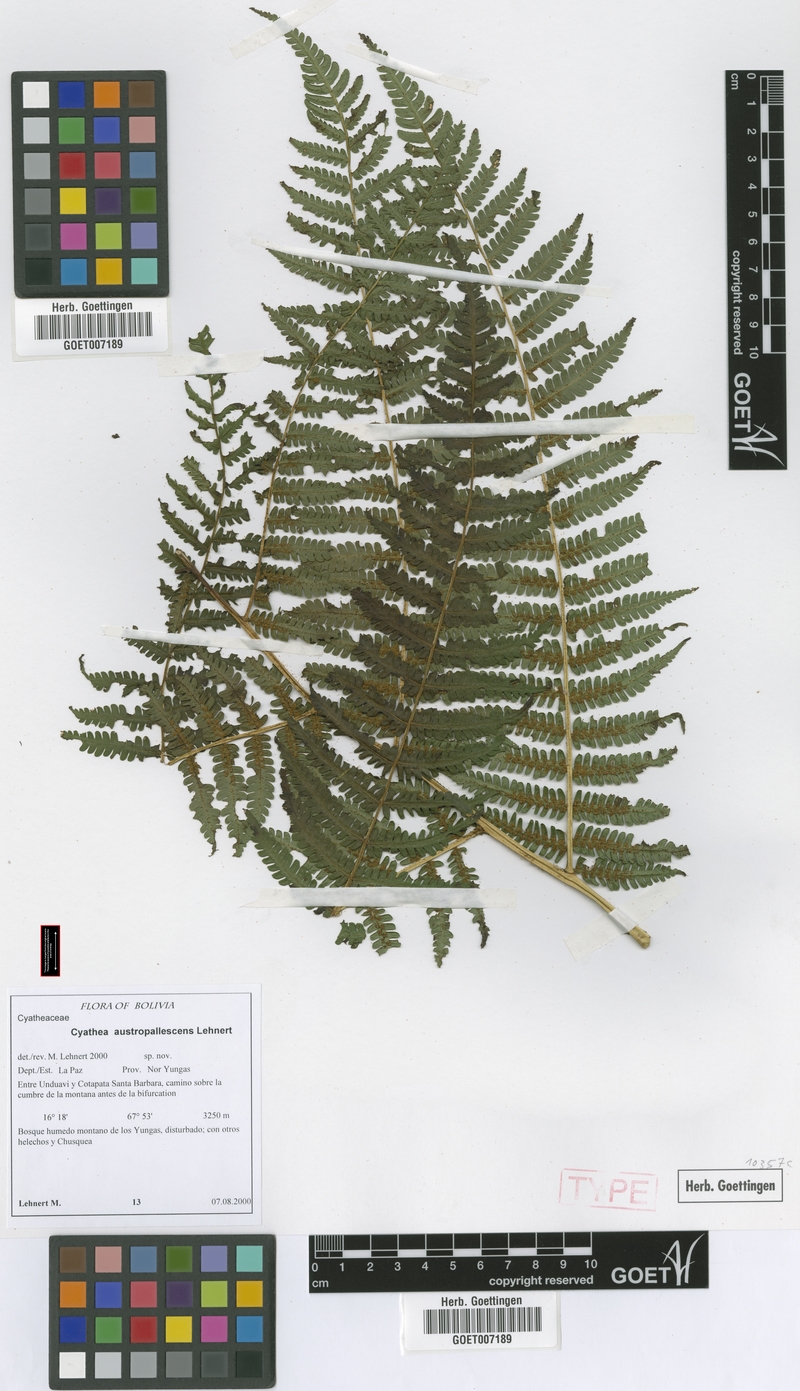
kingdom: Plantae
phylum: Tracheophyta
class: Polypodiopsida
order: Cyatheales
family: Cyatheaceae
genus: Cyathea
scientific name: Cyathea austropallescens
